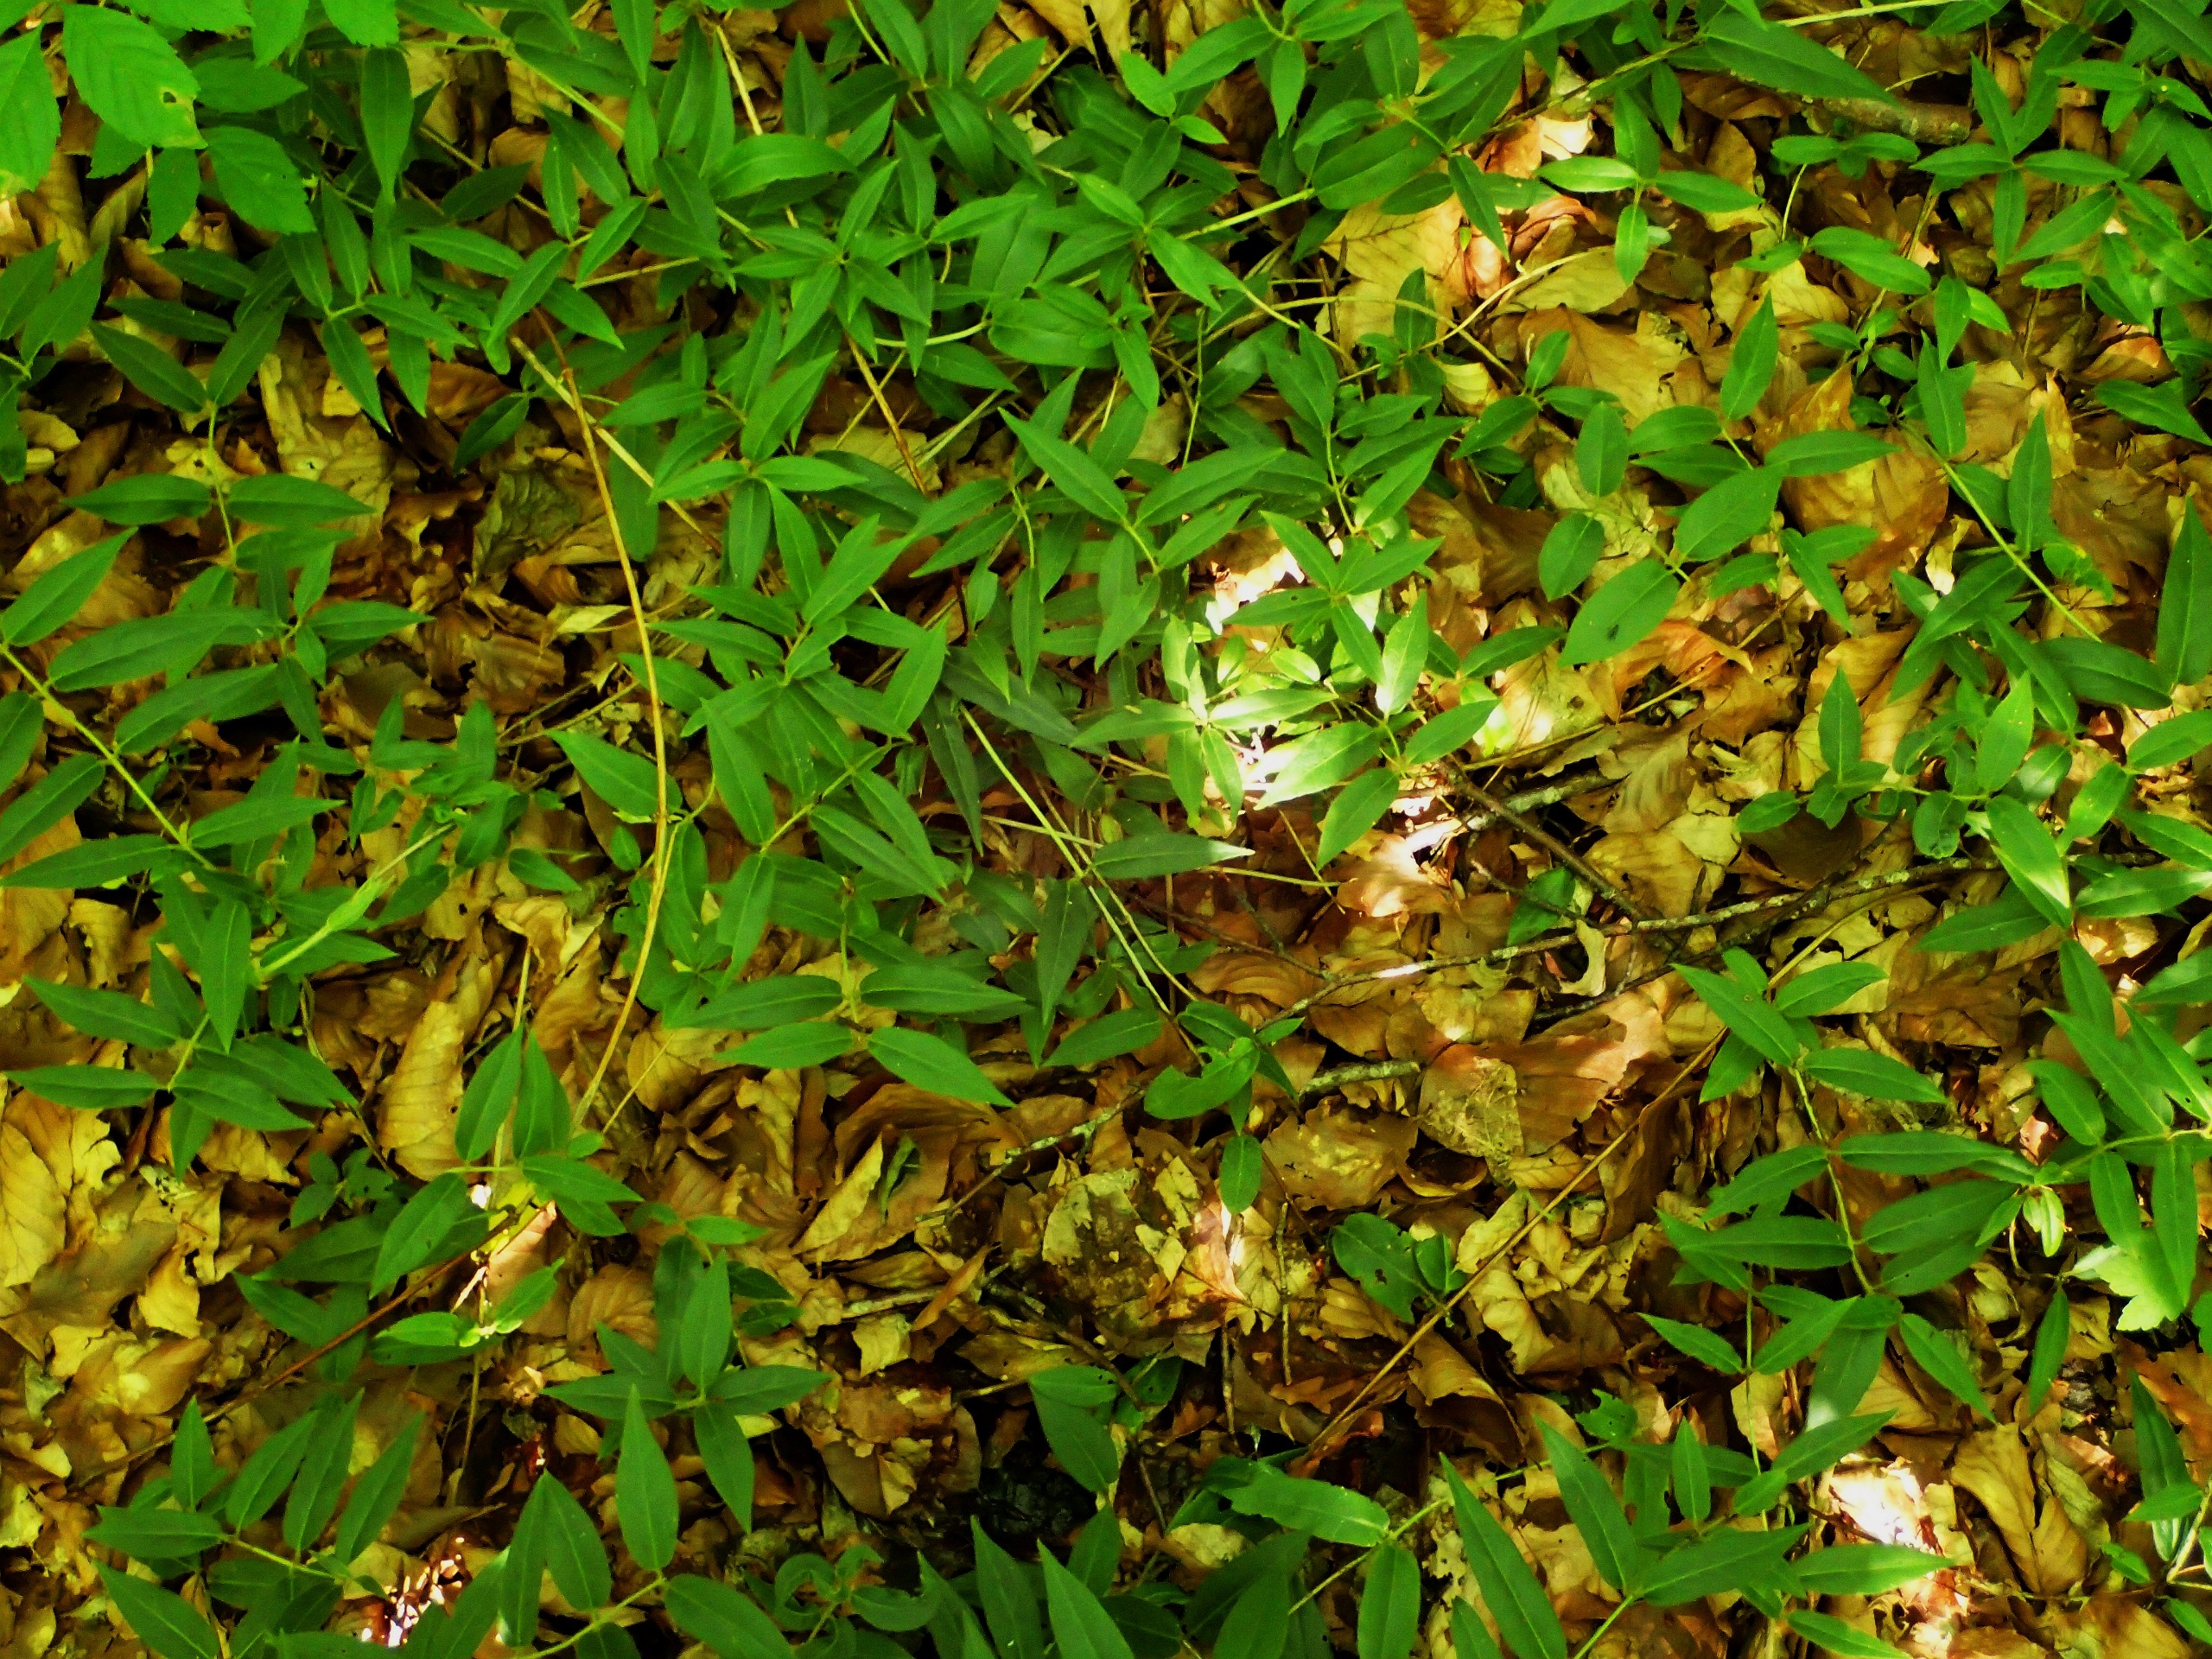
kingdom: Plantae
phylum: Tracheophyta
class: Magnoliopsida
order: Dipsacales
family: Caprifoliaceae
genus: Lonicera
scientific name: Lonicera acuminata
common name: Henrys gedeblad
